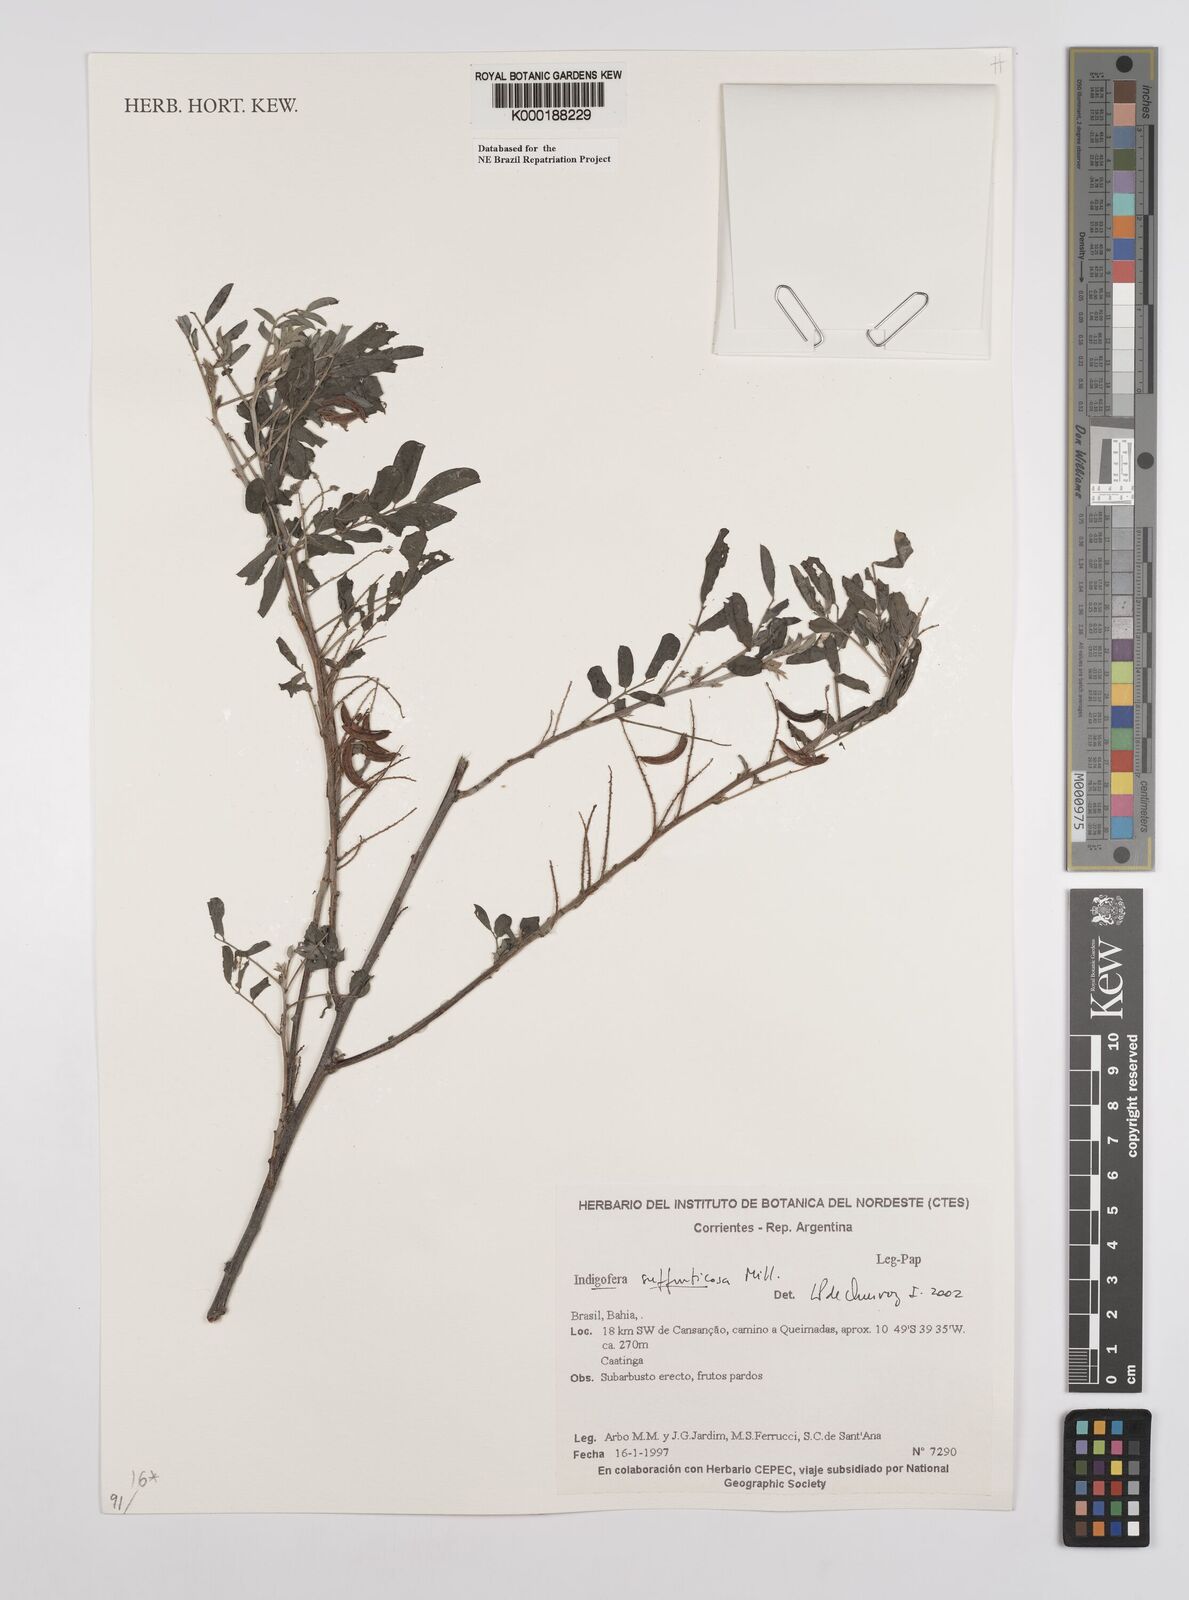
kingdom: Plantae
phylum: Tracheophyta
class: Magnoliopsida
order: Fabales
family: Fabaceae
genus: Indigofera
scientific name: Indigofera suffruticosa
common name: Anil de pasto
